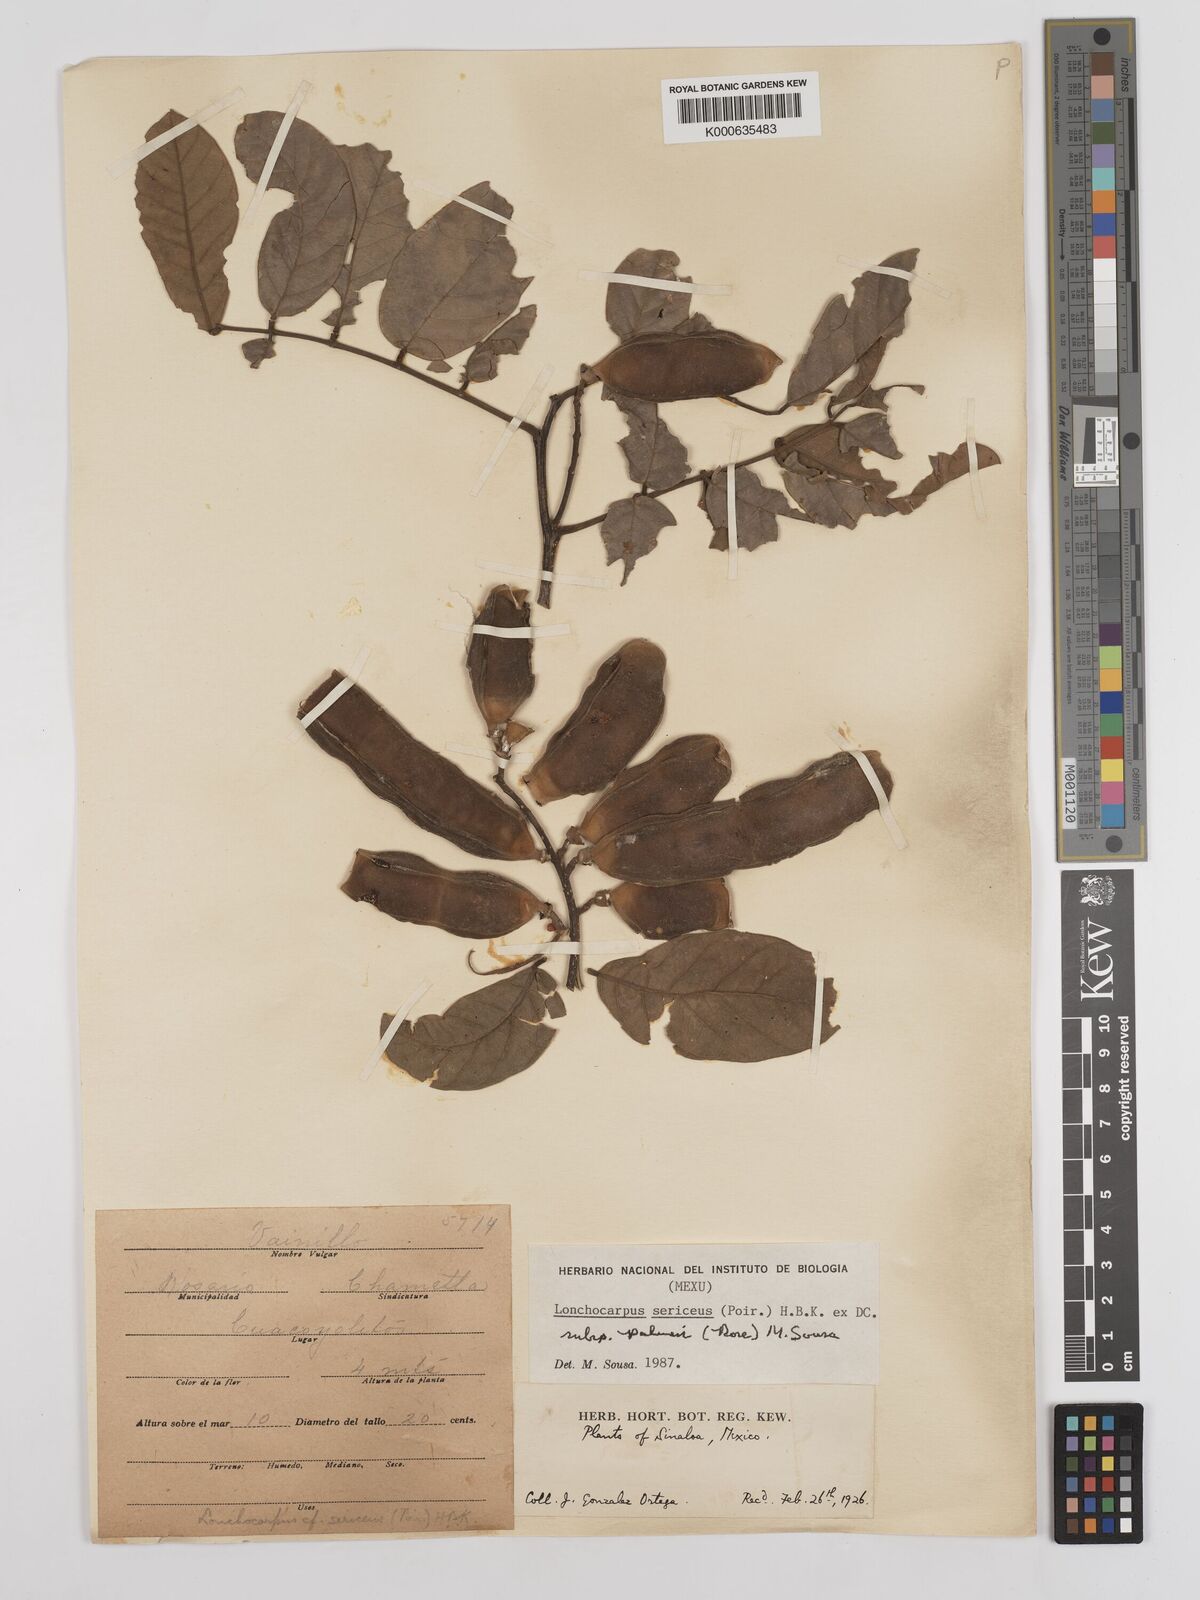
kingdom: Plantae
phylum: Tracheophyta
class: Magnoliopsida
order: Fabales
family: Fabaceae
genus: Lonchocarpus
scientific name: Lonchocarpus palmeri
